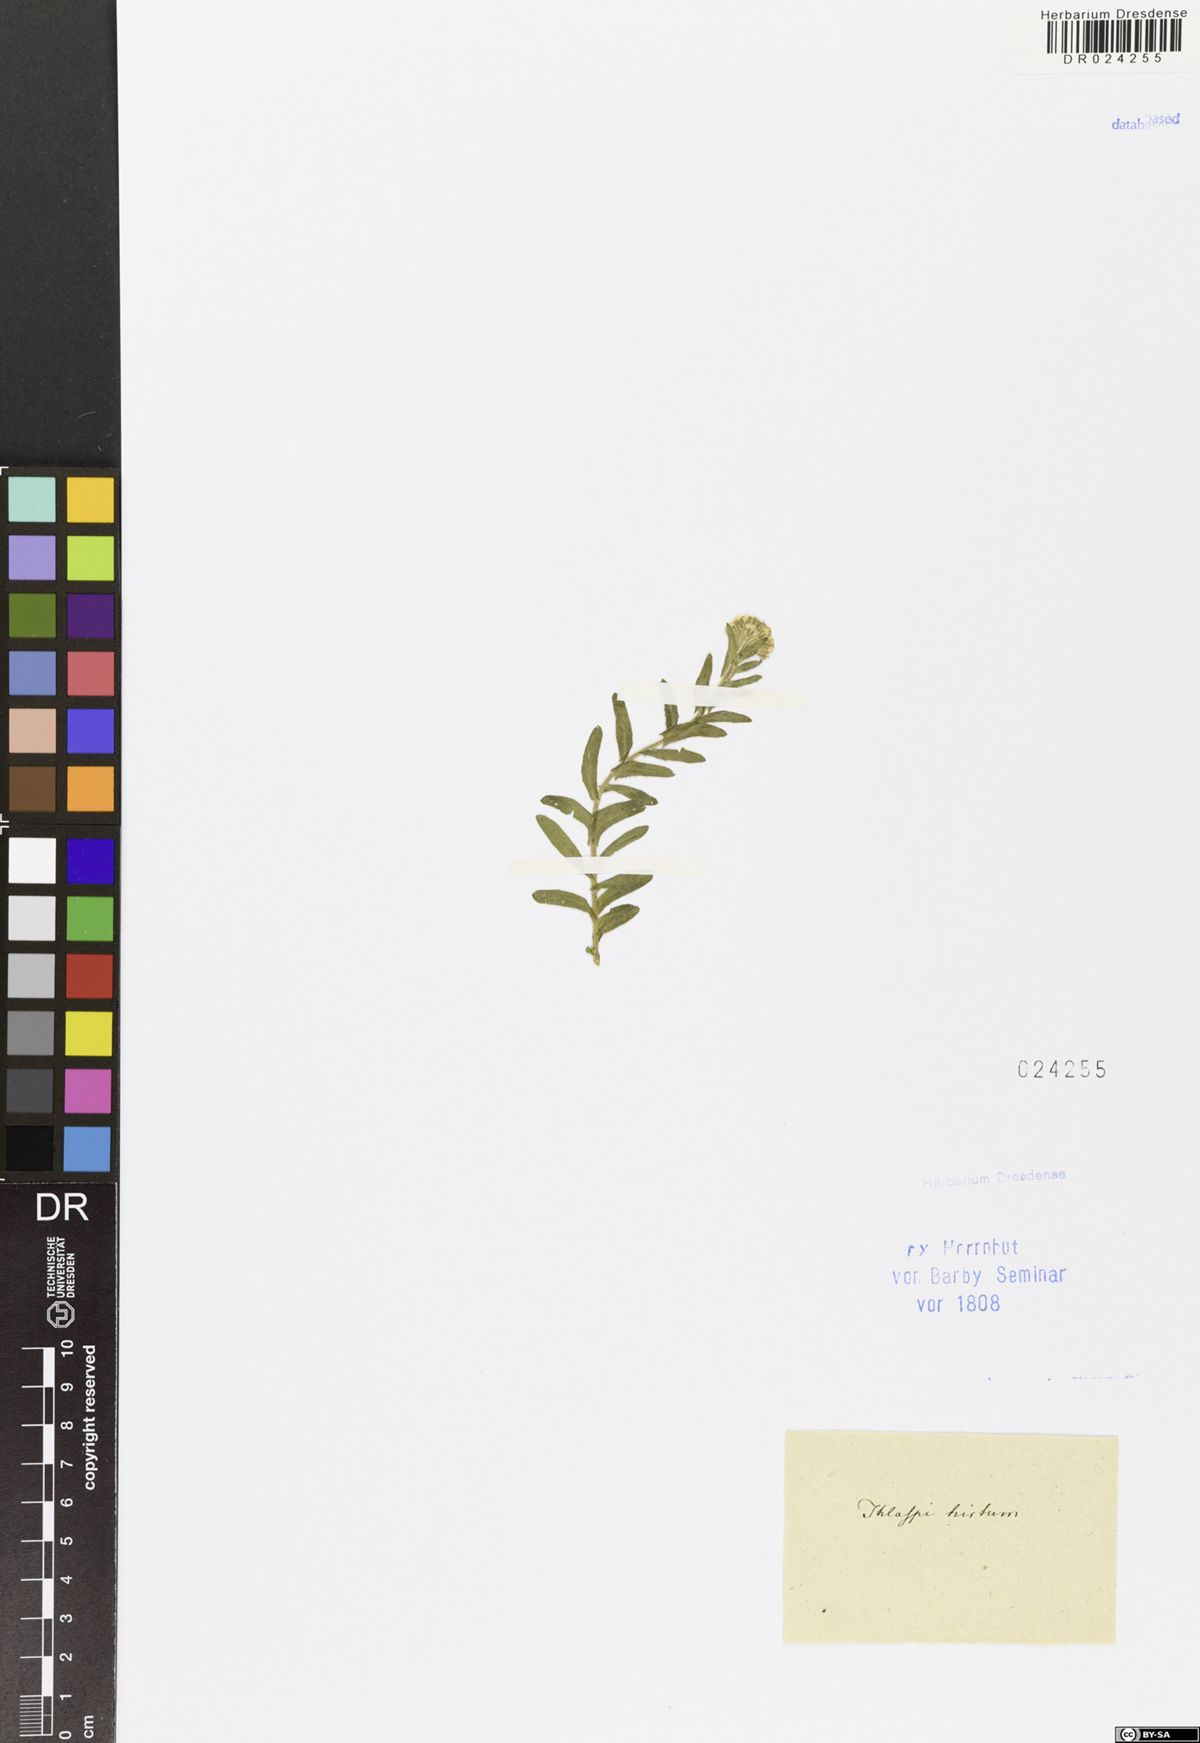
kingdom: Plantae
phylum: Tracheophyta
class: Magnoliopsida
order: Brassicales
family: Brassicaceae
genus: Lepidium
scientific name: Lepidium hirtum
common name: Mediterranean pepperweed
